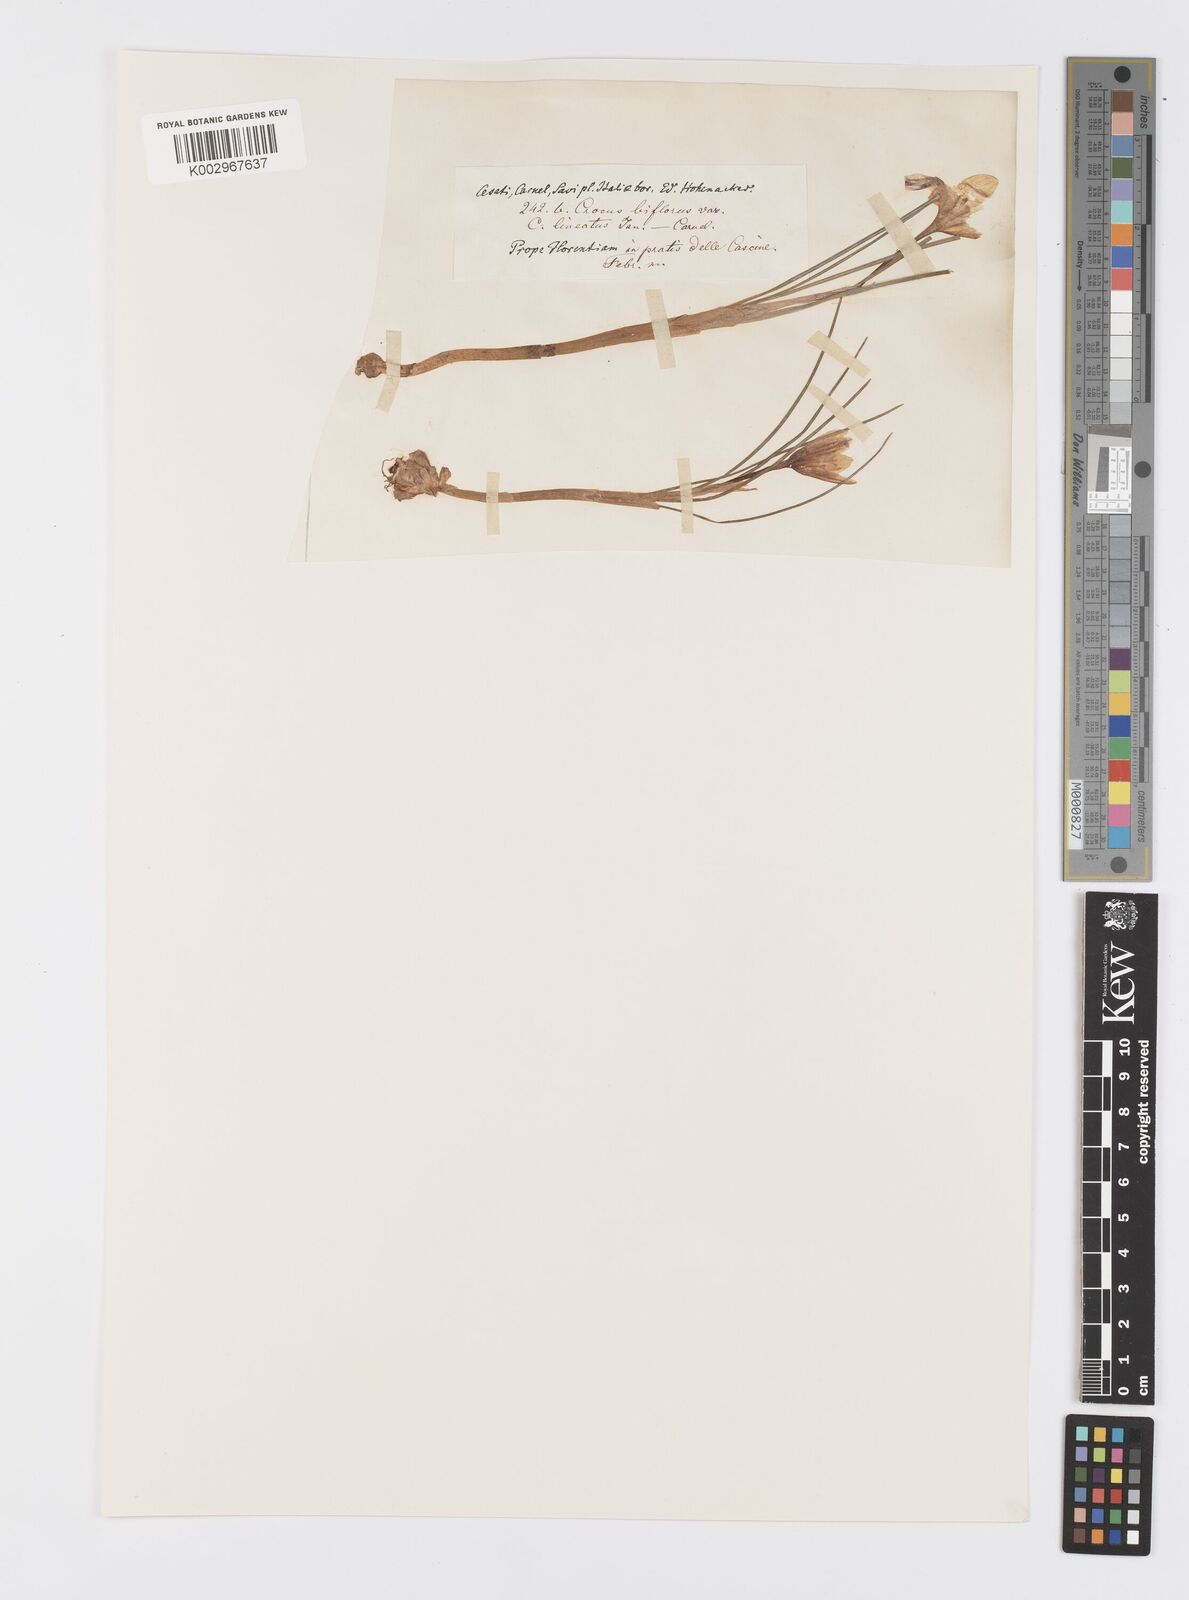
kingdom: Plantae
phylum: Tracheophyta
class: Liliopsida
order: Asparagales
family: Iridaceae
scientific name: Iridaceae
